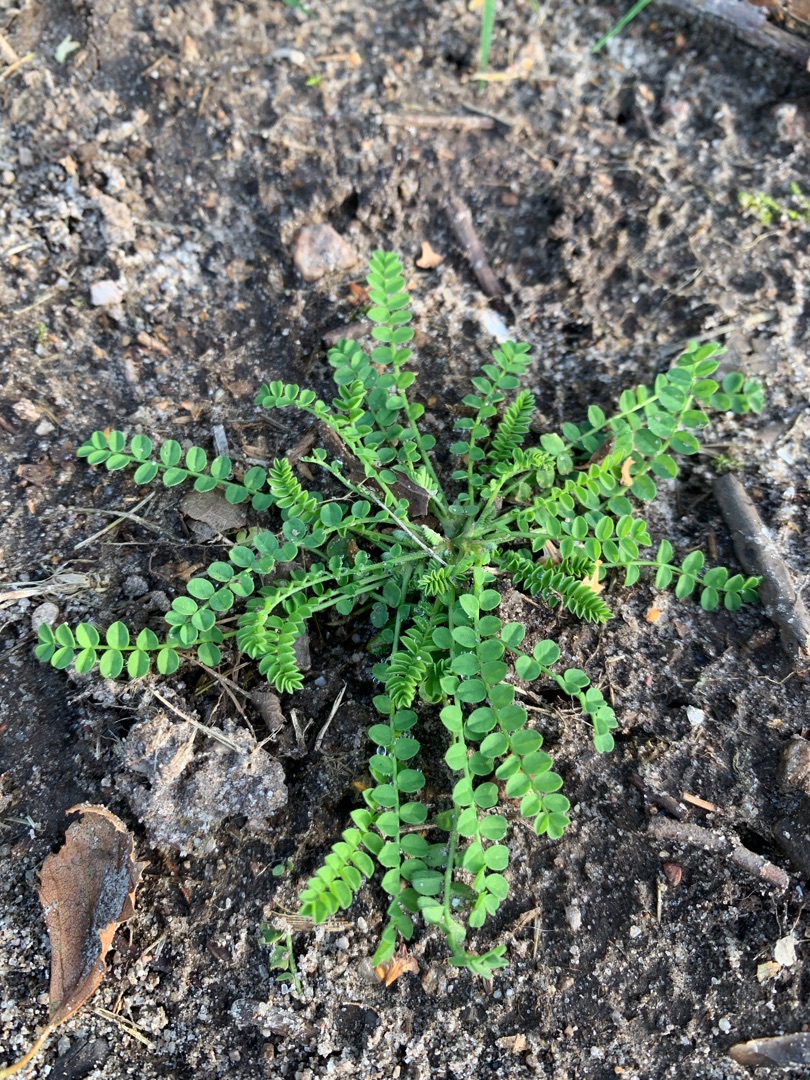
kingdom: Plantae
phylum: Tracheophyta
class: Magnoliopsida
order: Fabales
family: Fabaceae
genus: Ornithopus
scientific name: Ornithopus perpusillus
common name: Liden fugleklo
